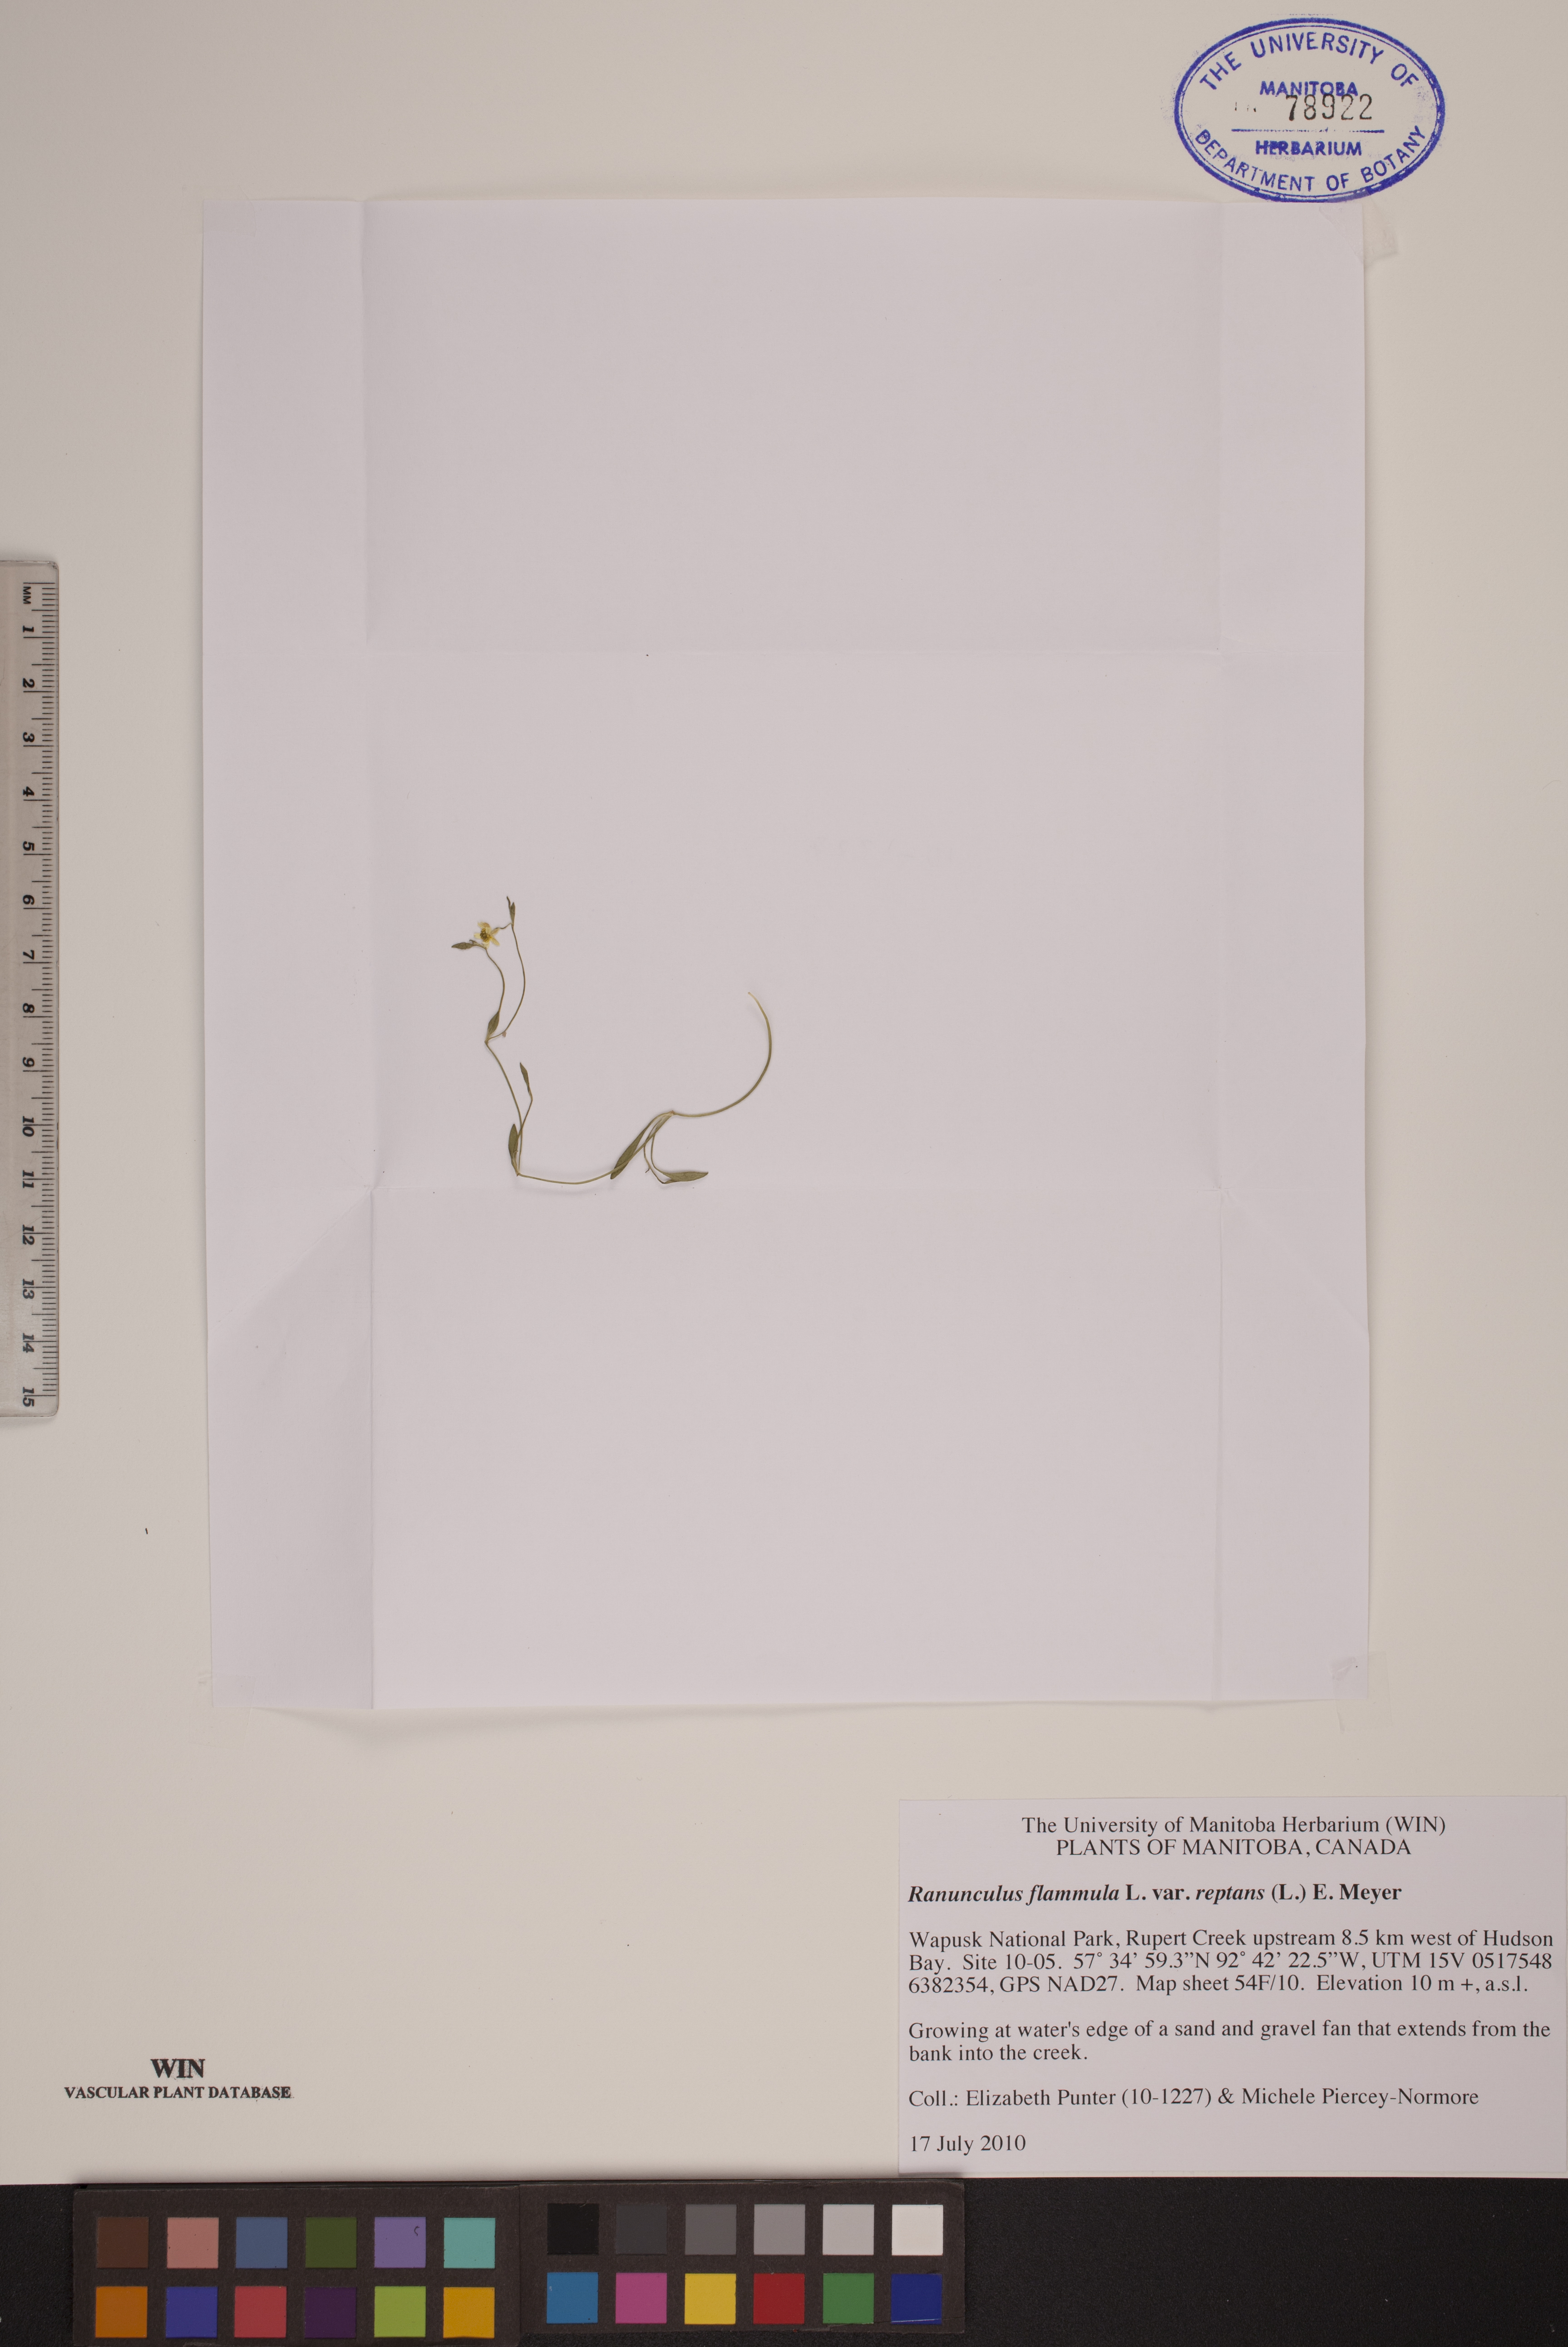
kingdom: Plantae
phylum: Tracheophyta
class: Magnoliopsida
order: Ranunculales
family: Ranunculaceae
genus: Ranunculus
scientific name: Ranunculus reptans
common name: Creeping spearwort
